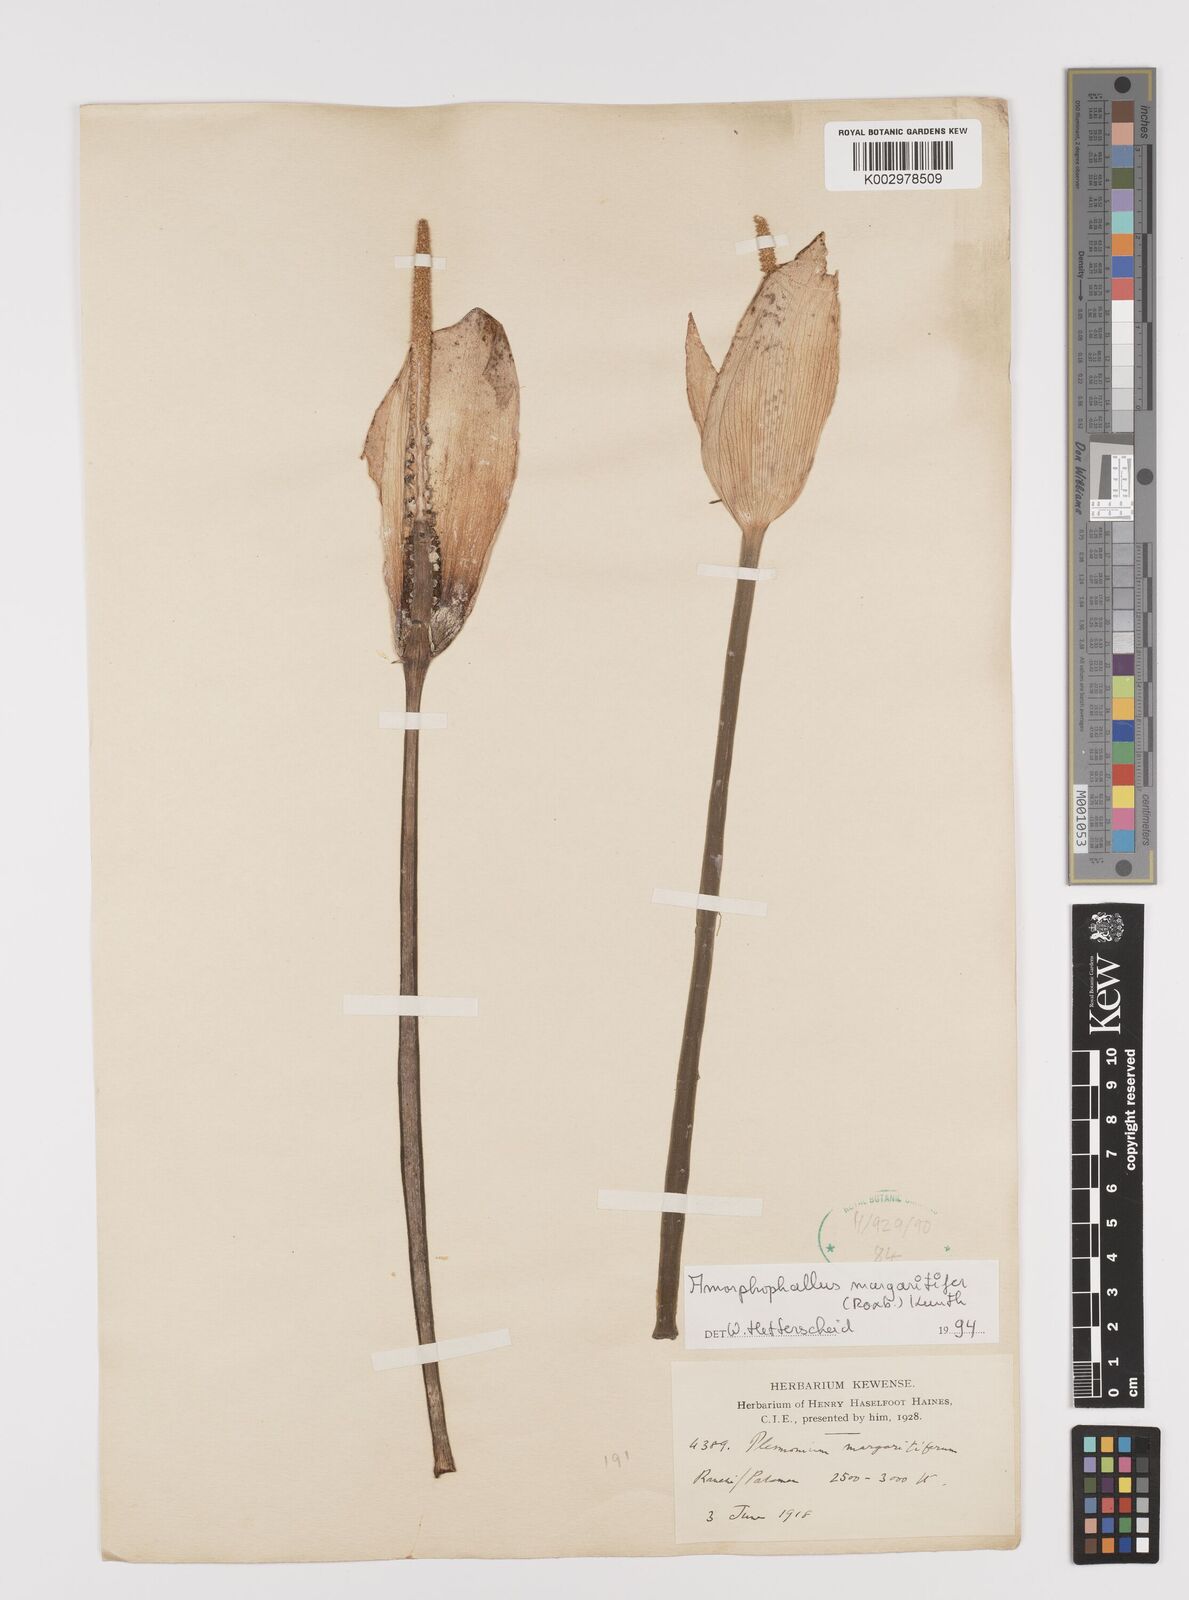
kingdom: Plantae
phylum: Tracheophyta
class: Liliopsida
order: Alismatales
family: Araceae
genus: Amorphophallus
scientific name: Amorphophallus margaritifer
